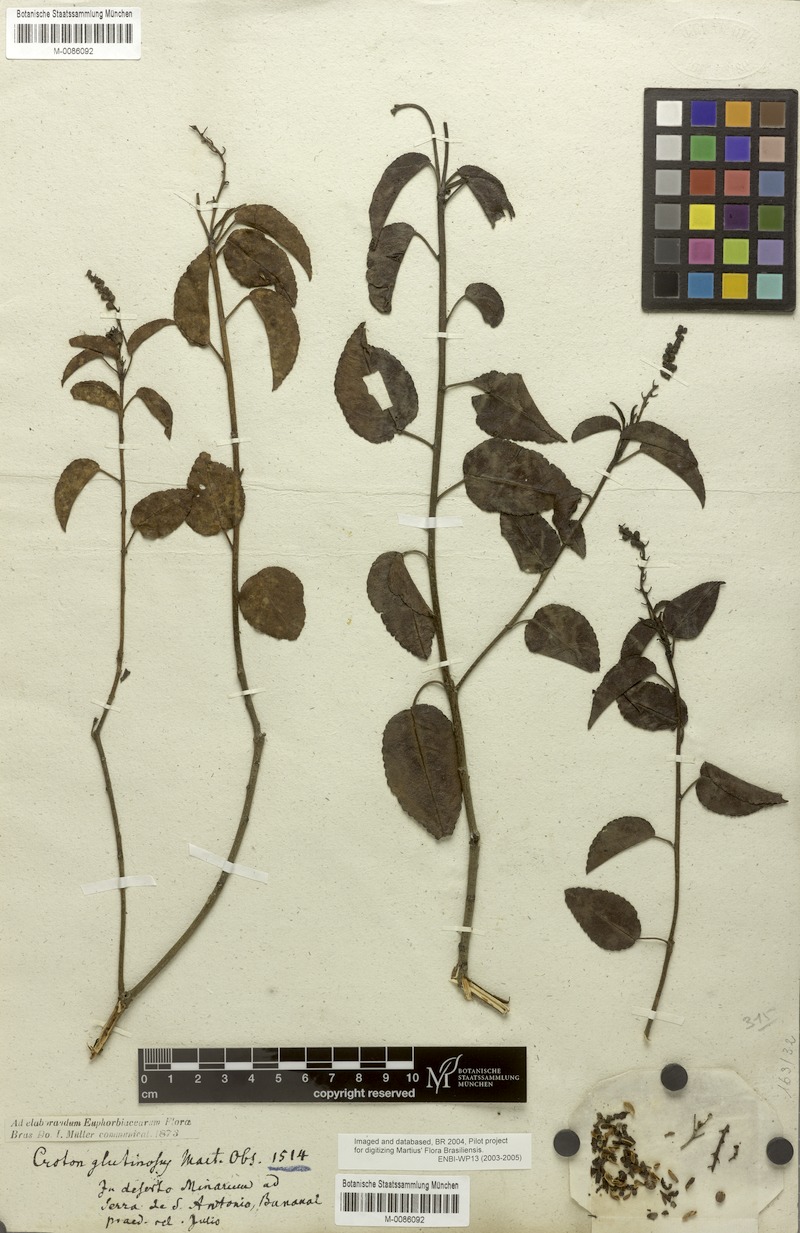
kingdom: Plantae
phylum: Tracheophyta
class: Magnoliopsida
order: Malpighiales
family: Euphorbiaceae
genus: Croton
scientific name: Croton glutinosus
